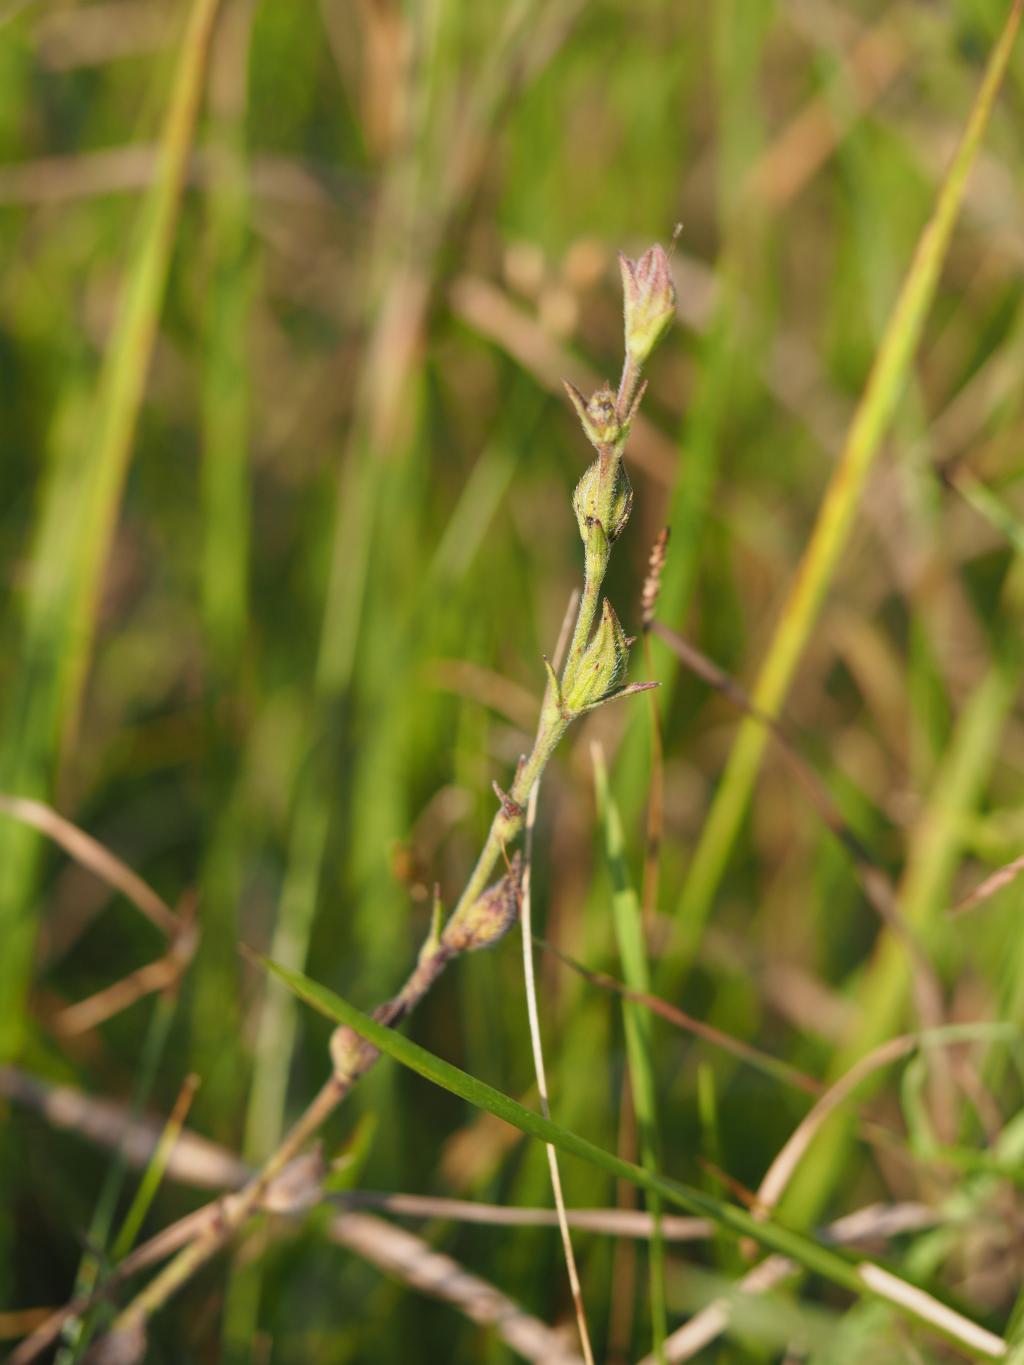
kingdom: Plantae
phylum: Tracheophyta
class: Magnoliopsida
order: Lamiales
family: Orobanchaceae
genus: Centranthera
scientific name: Centranthera cochinchinensis
